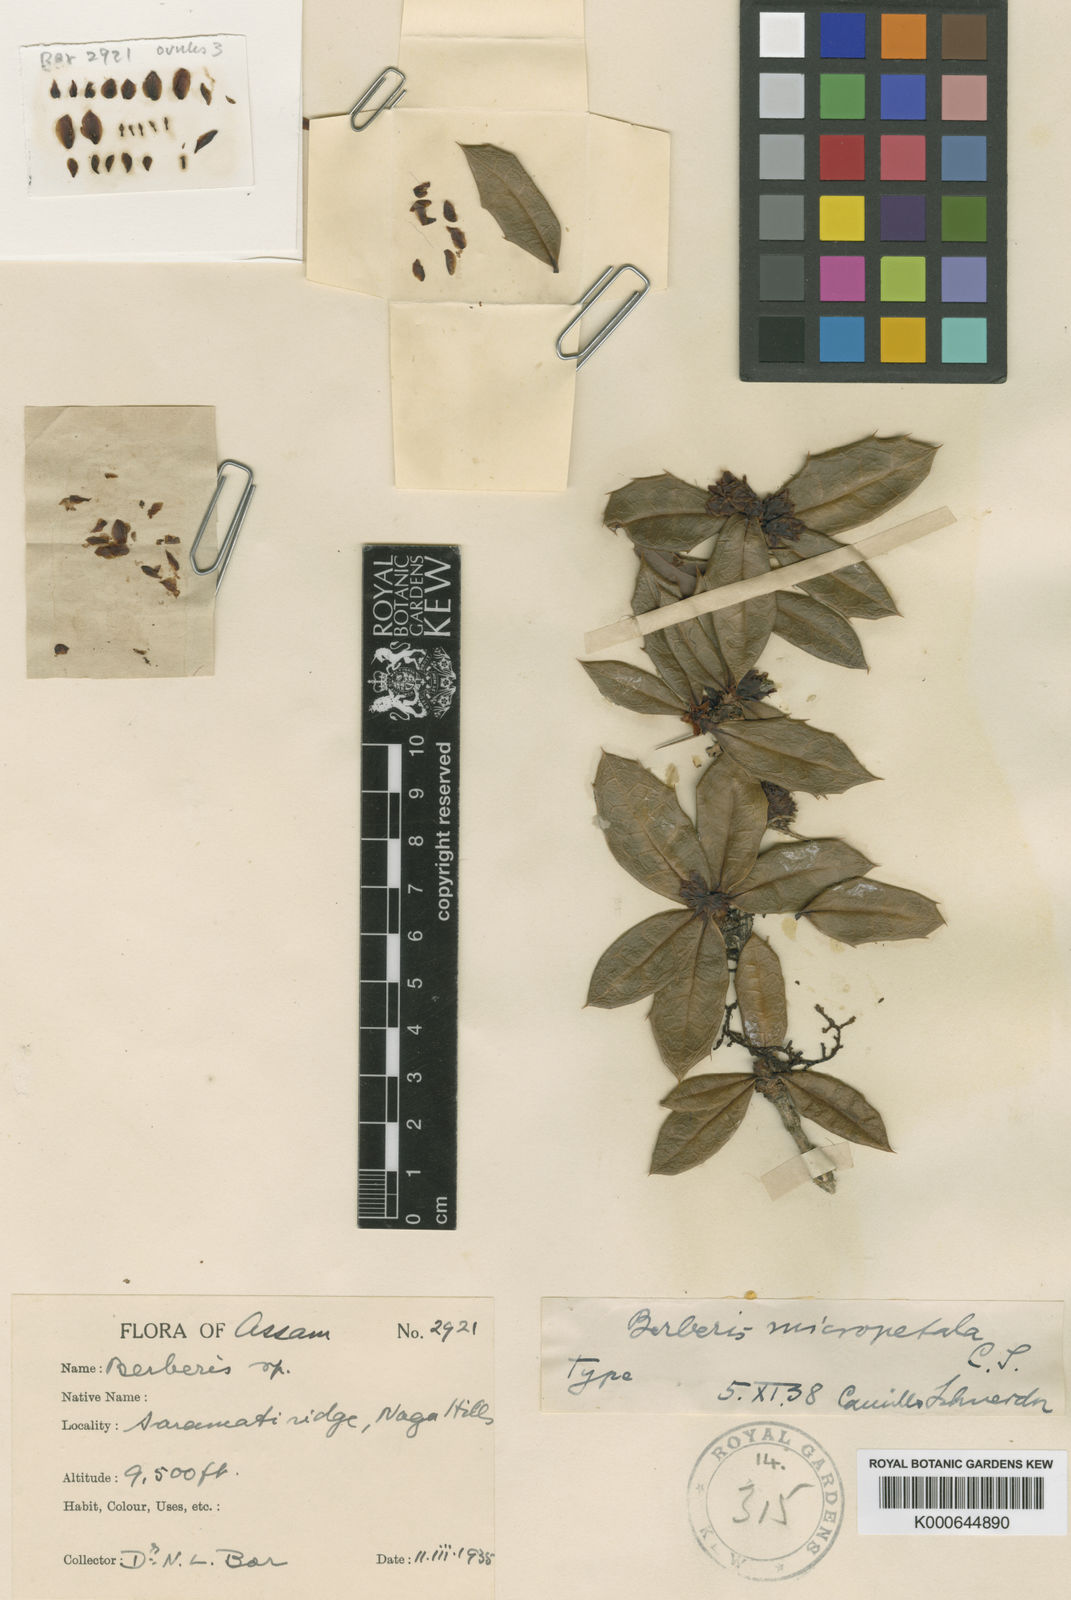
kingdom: Plantae
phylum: Tracheophyta
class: Magnoliopsida
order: Ranunculales
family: Berberidaceae
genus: Berberis
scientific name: Berberis micropetala
